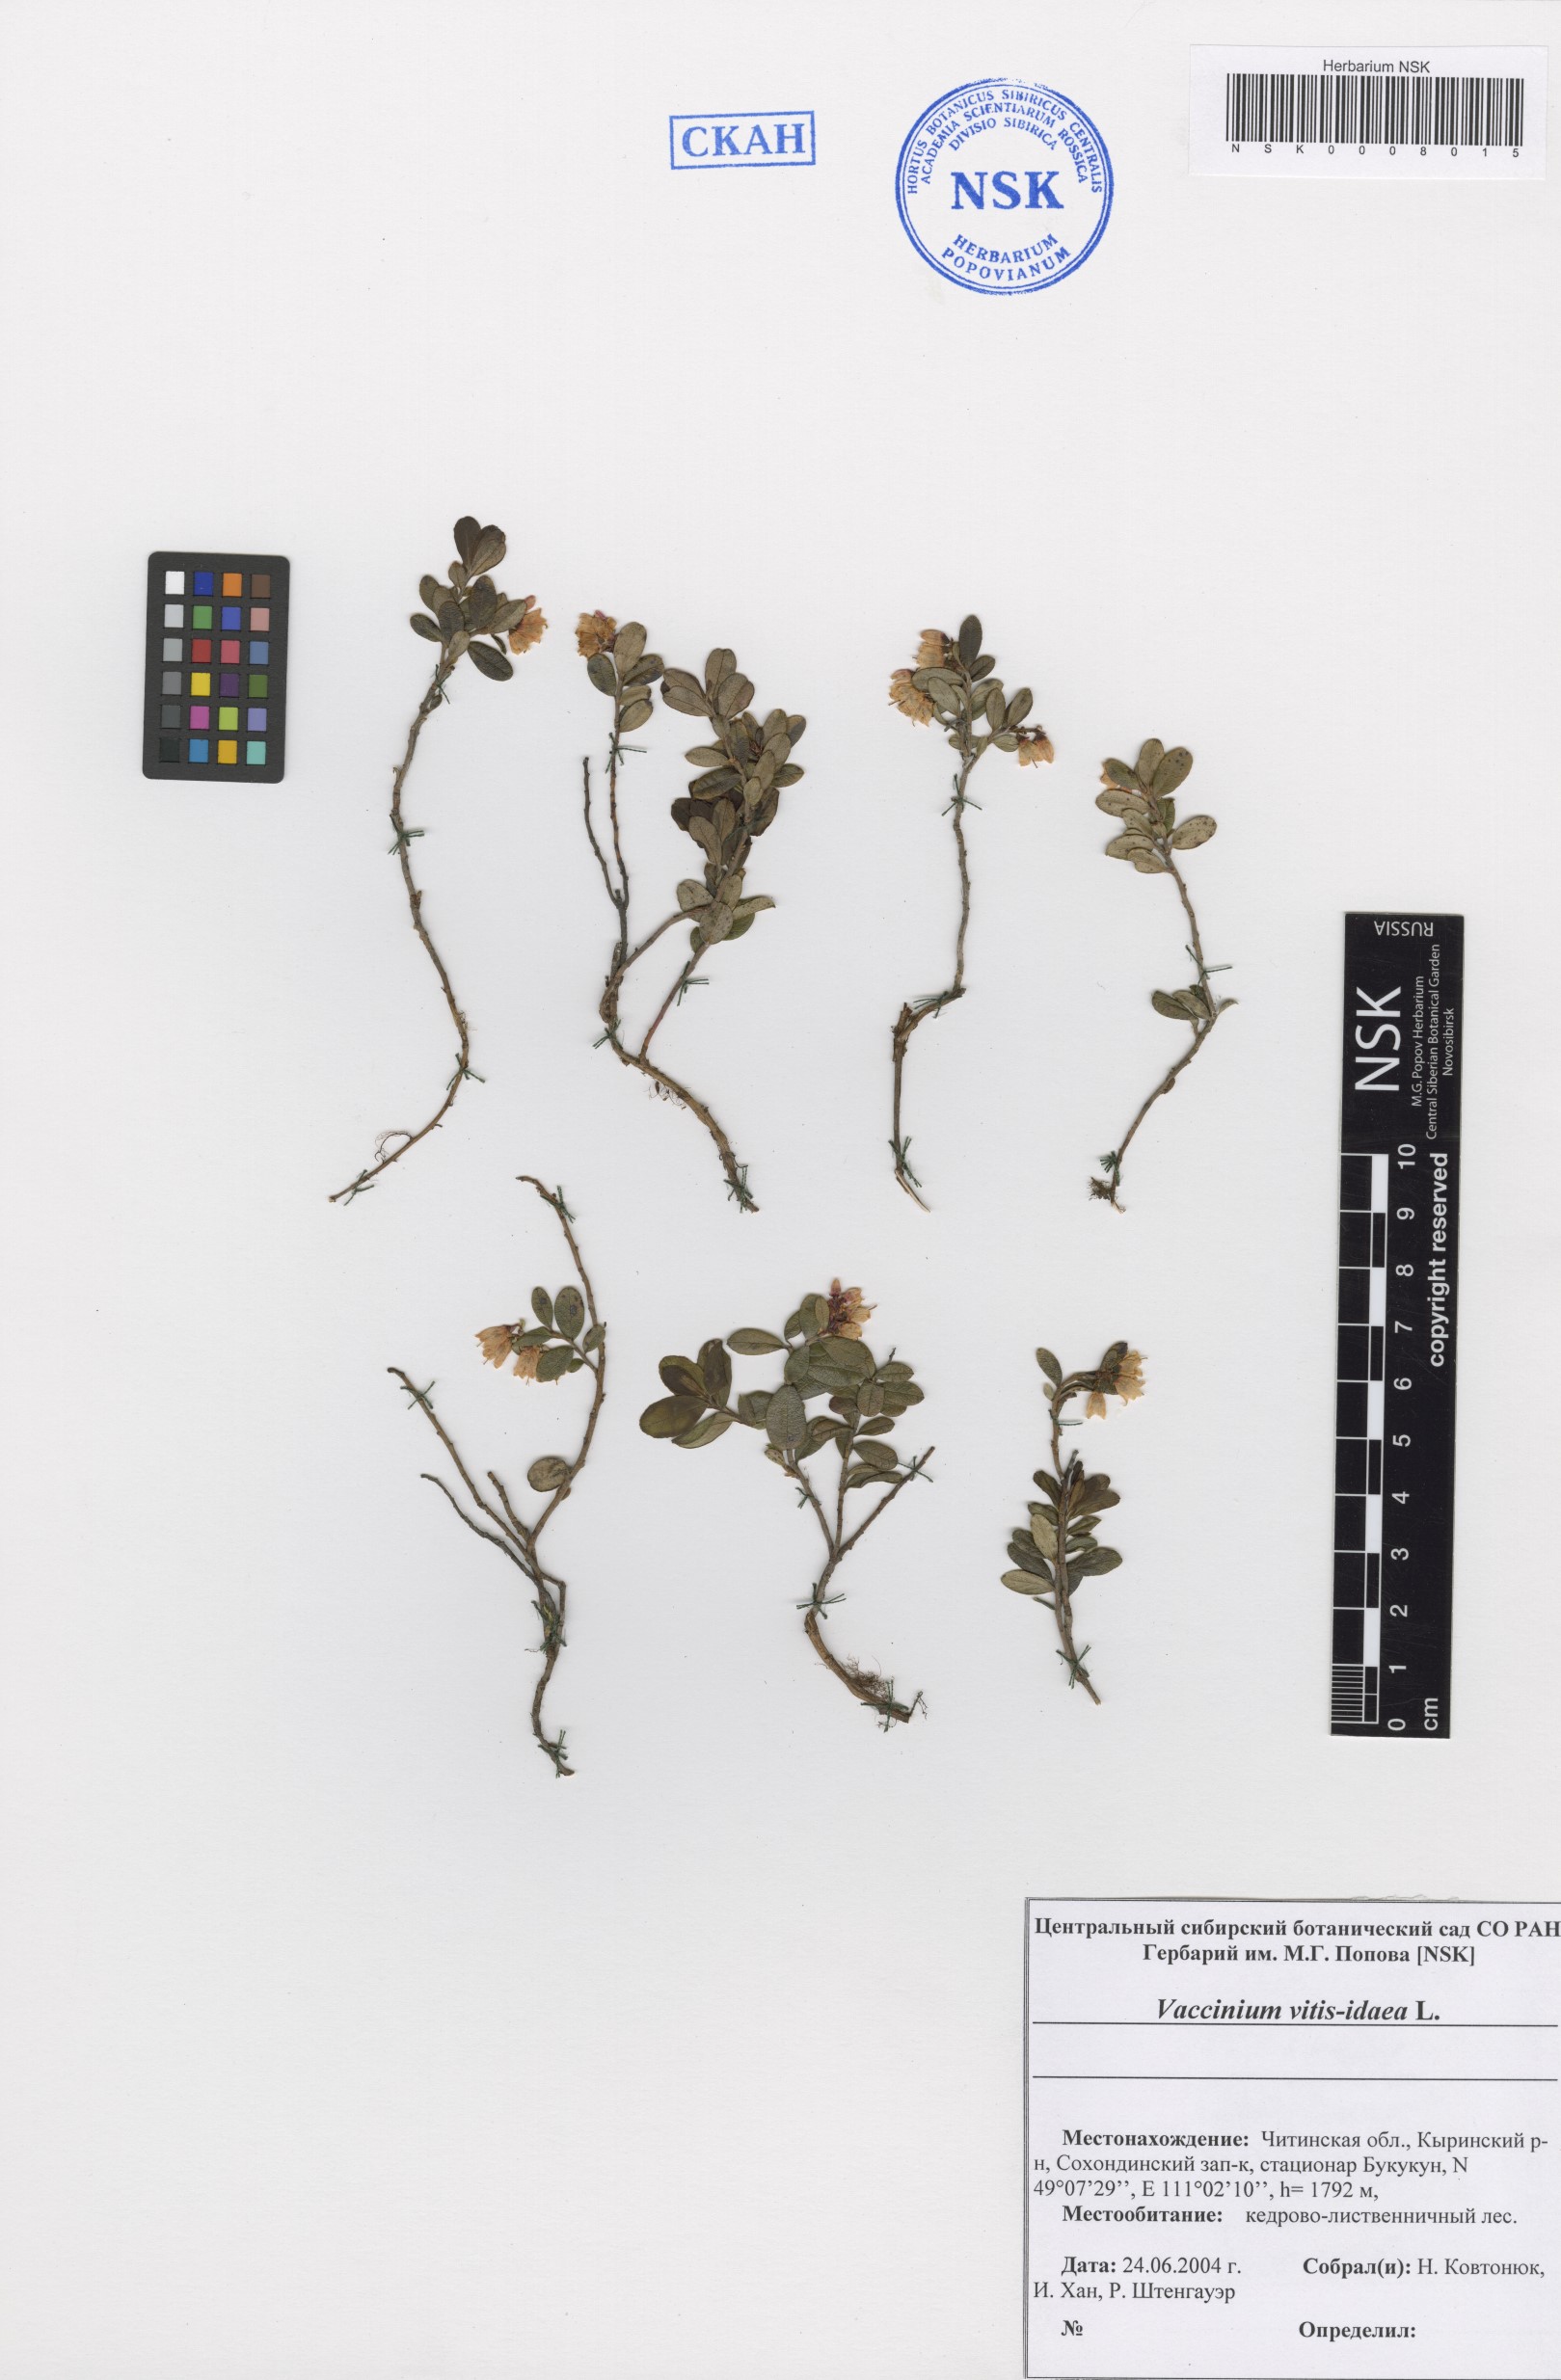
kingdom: Plantae
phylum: Tracheophyta
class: Magnoliopsida
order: Ericales
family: Ericaceae
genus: Vaccinium
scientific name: Vaccinium vitis-idaea
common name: Cowberry
